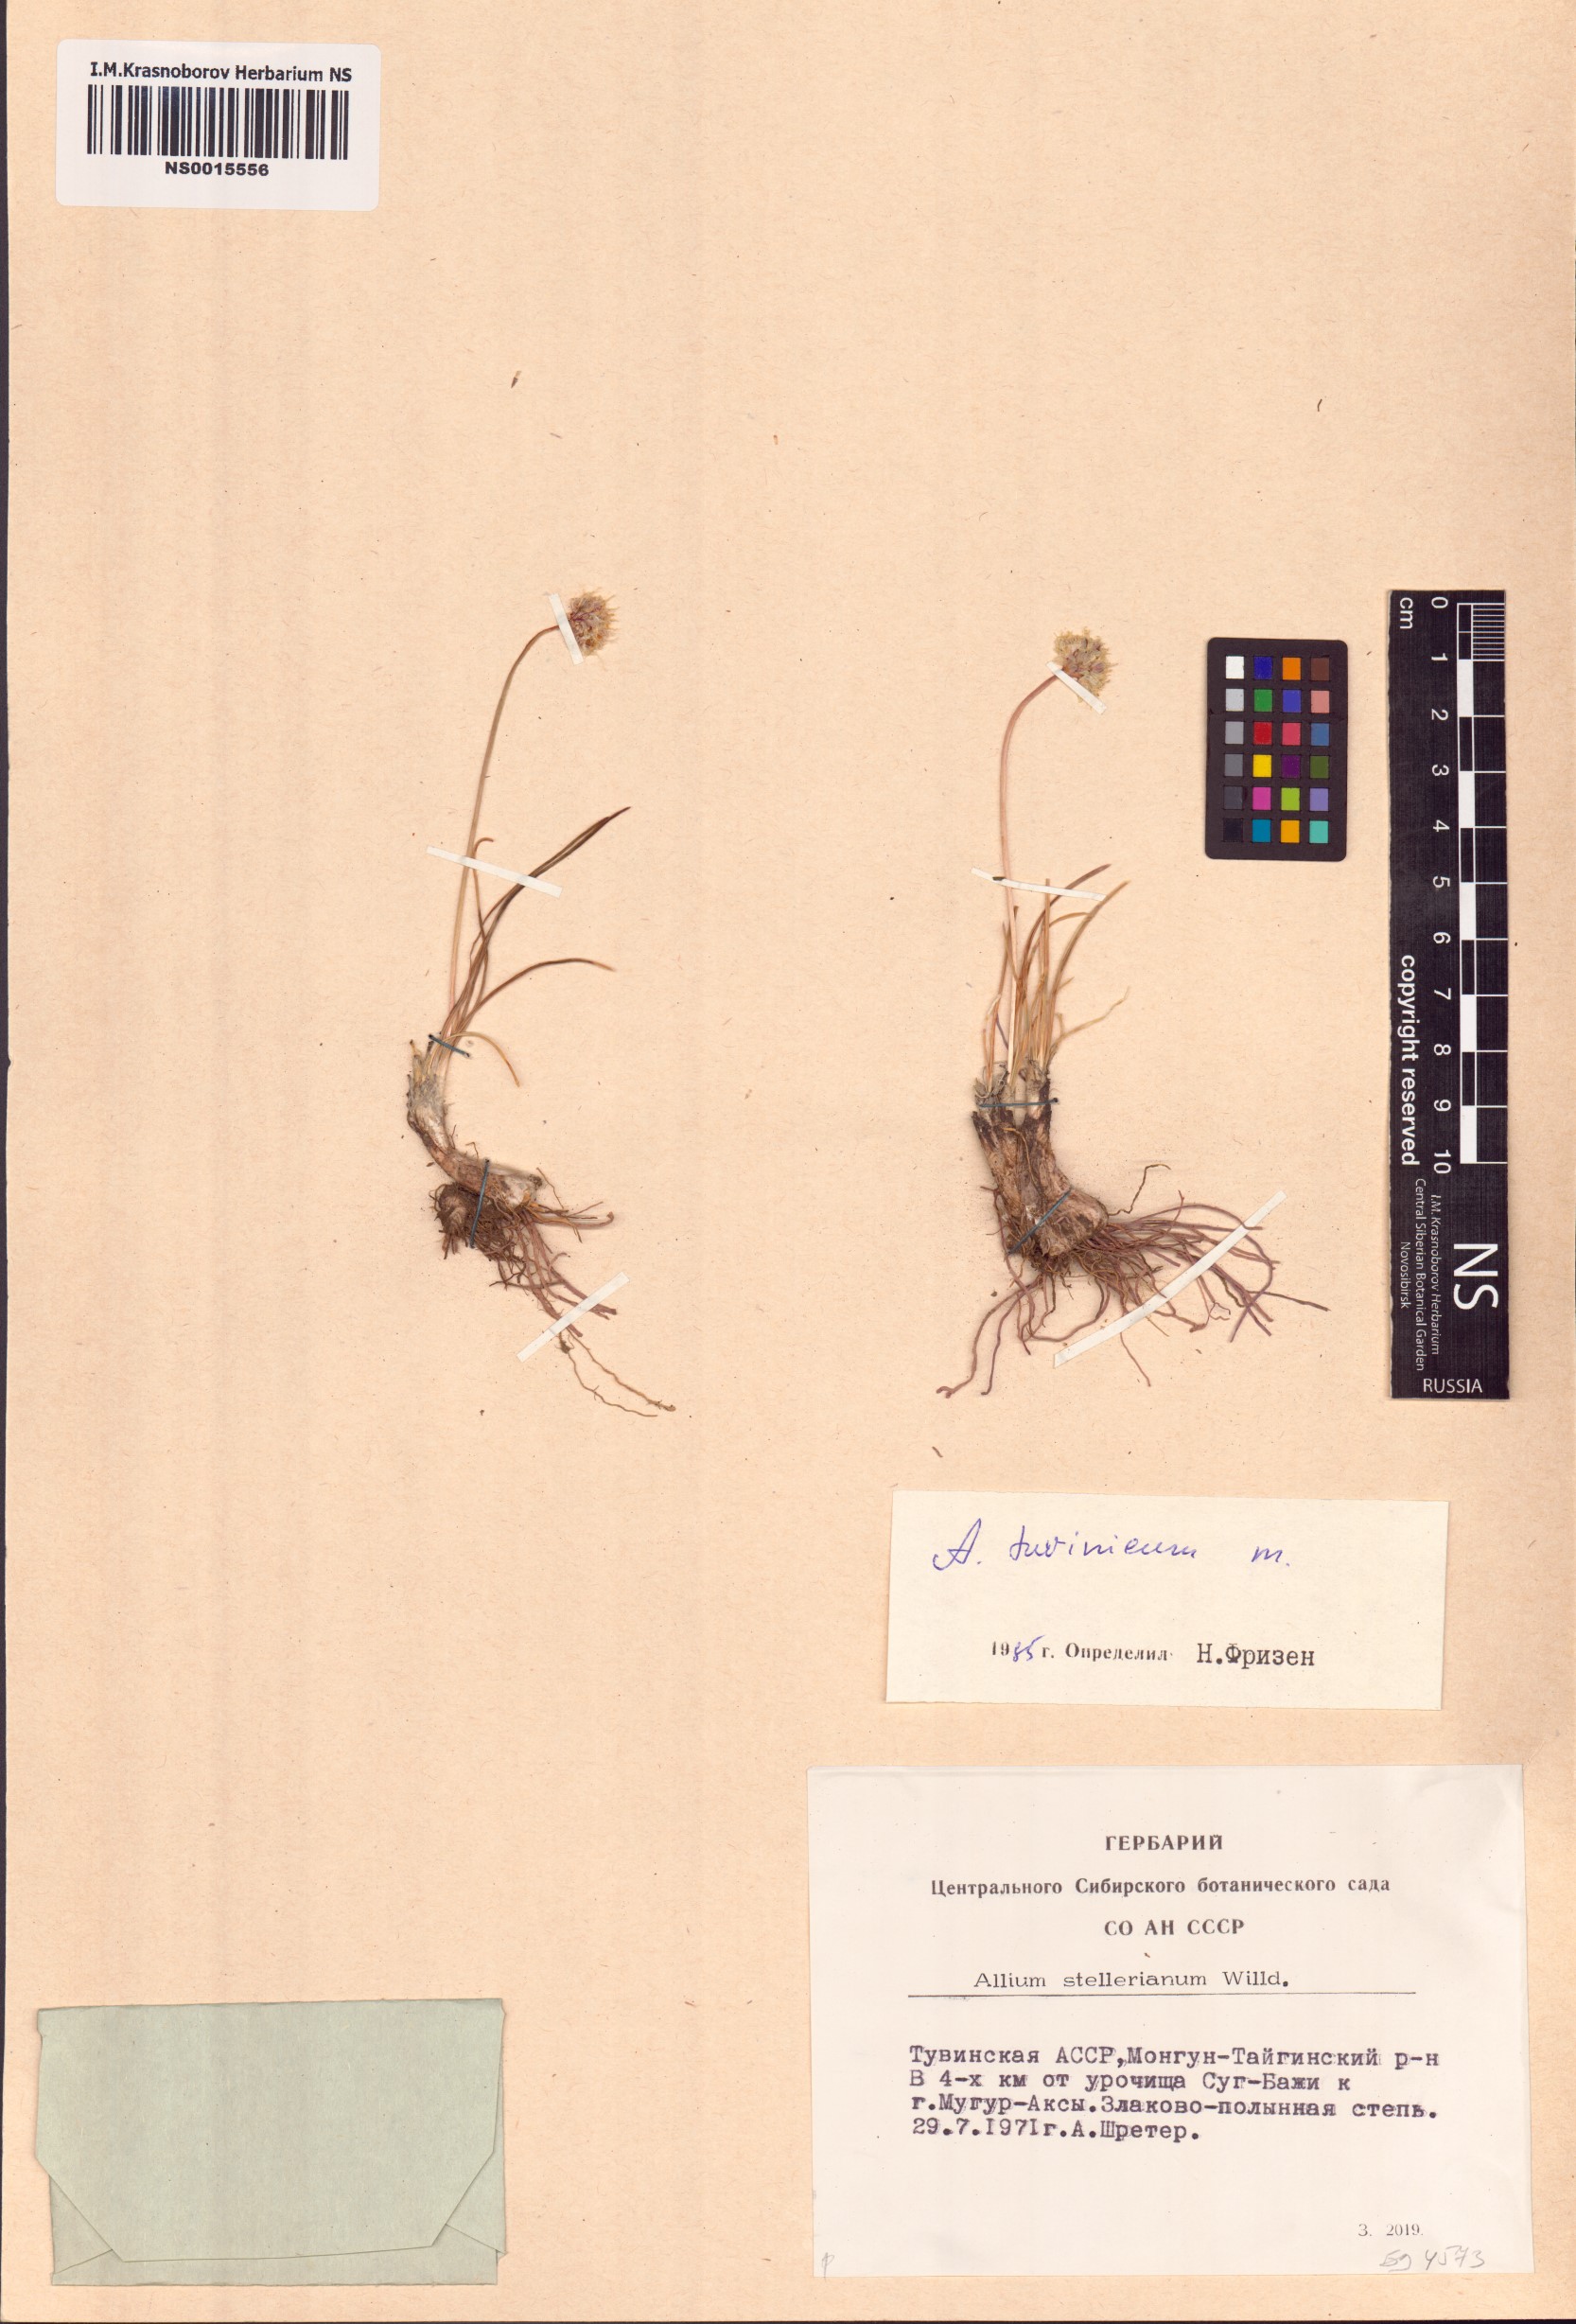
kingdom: Plantae
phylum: Tracheophyta
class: Liliopsida
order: Asparagales
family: Amaryllidaceae
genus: Allium
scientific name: Allium tuvinicum
